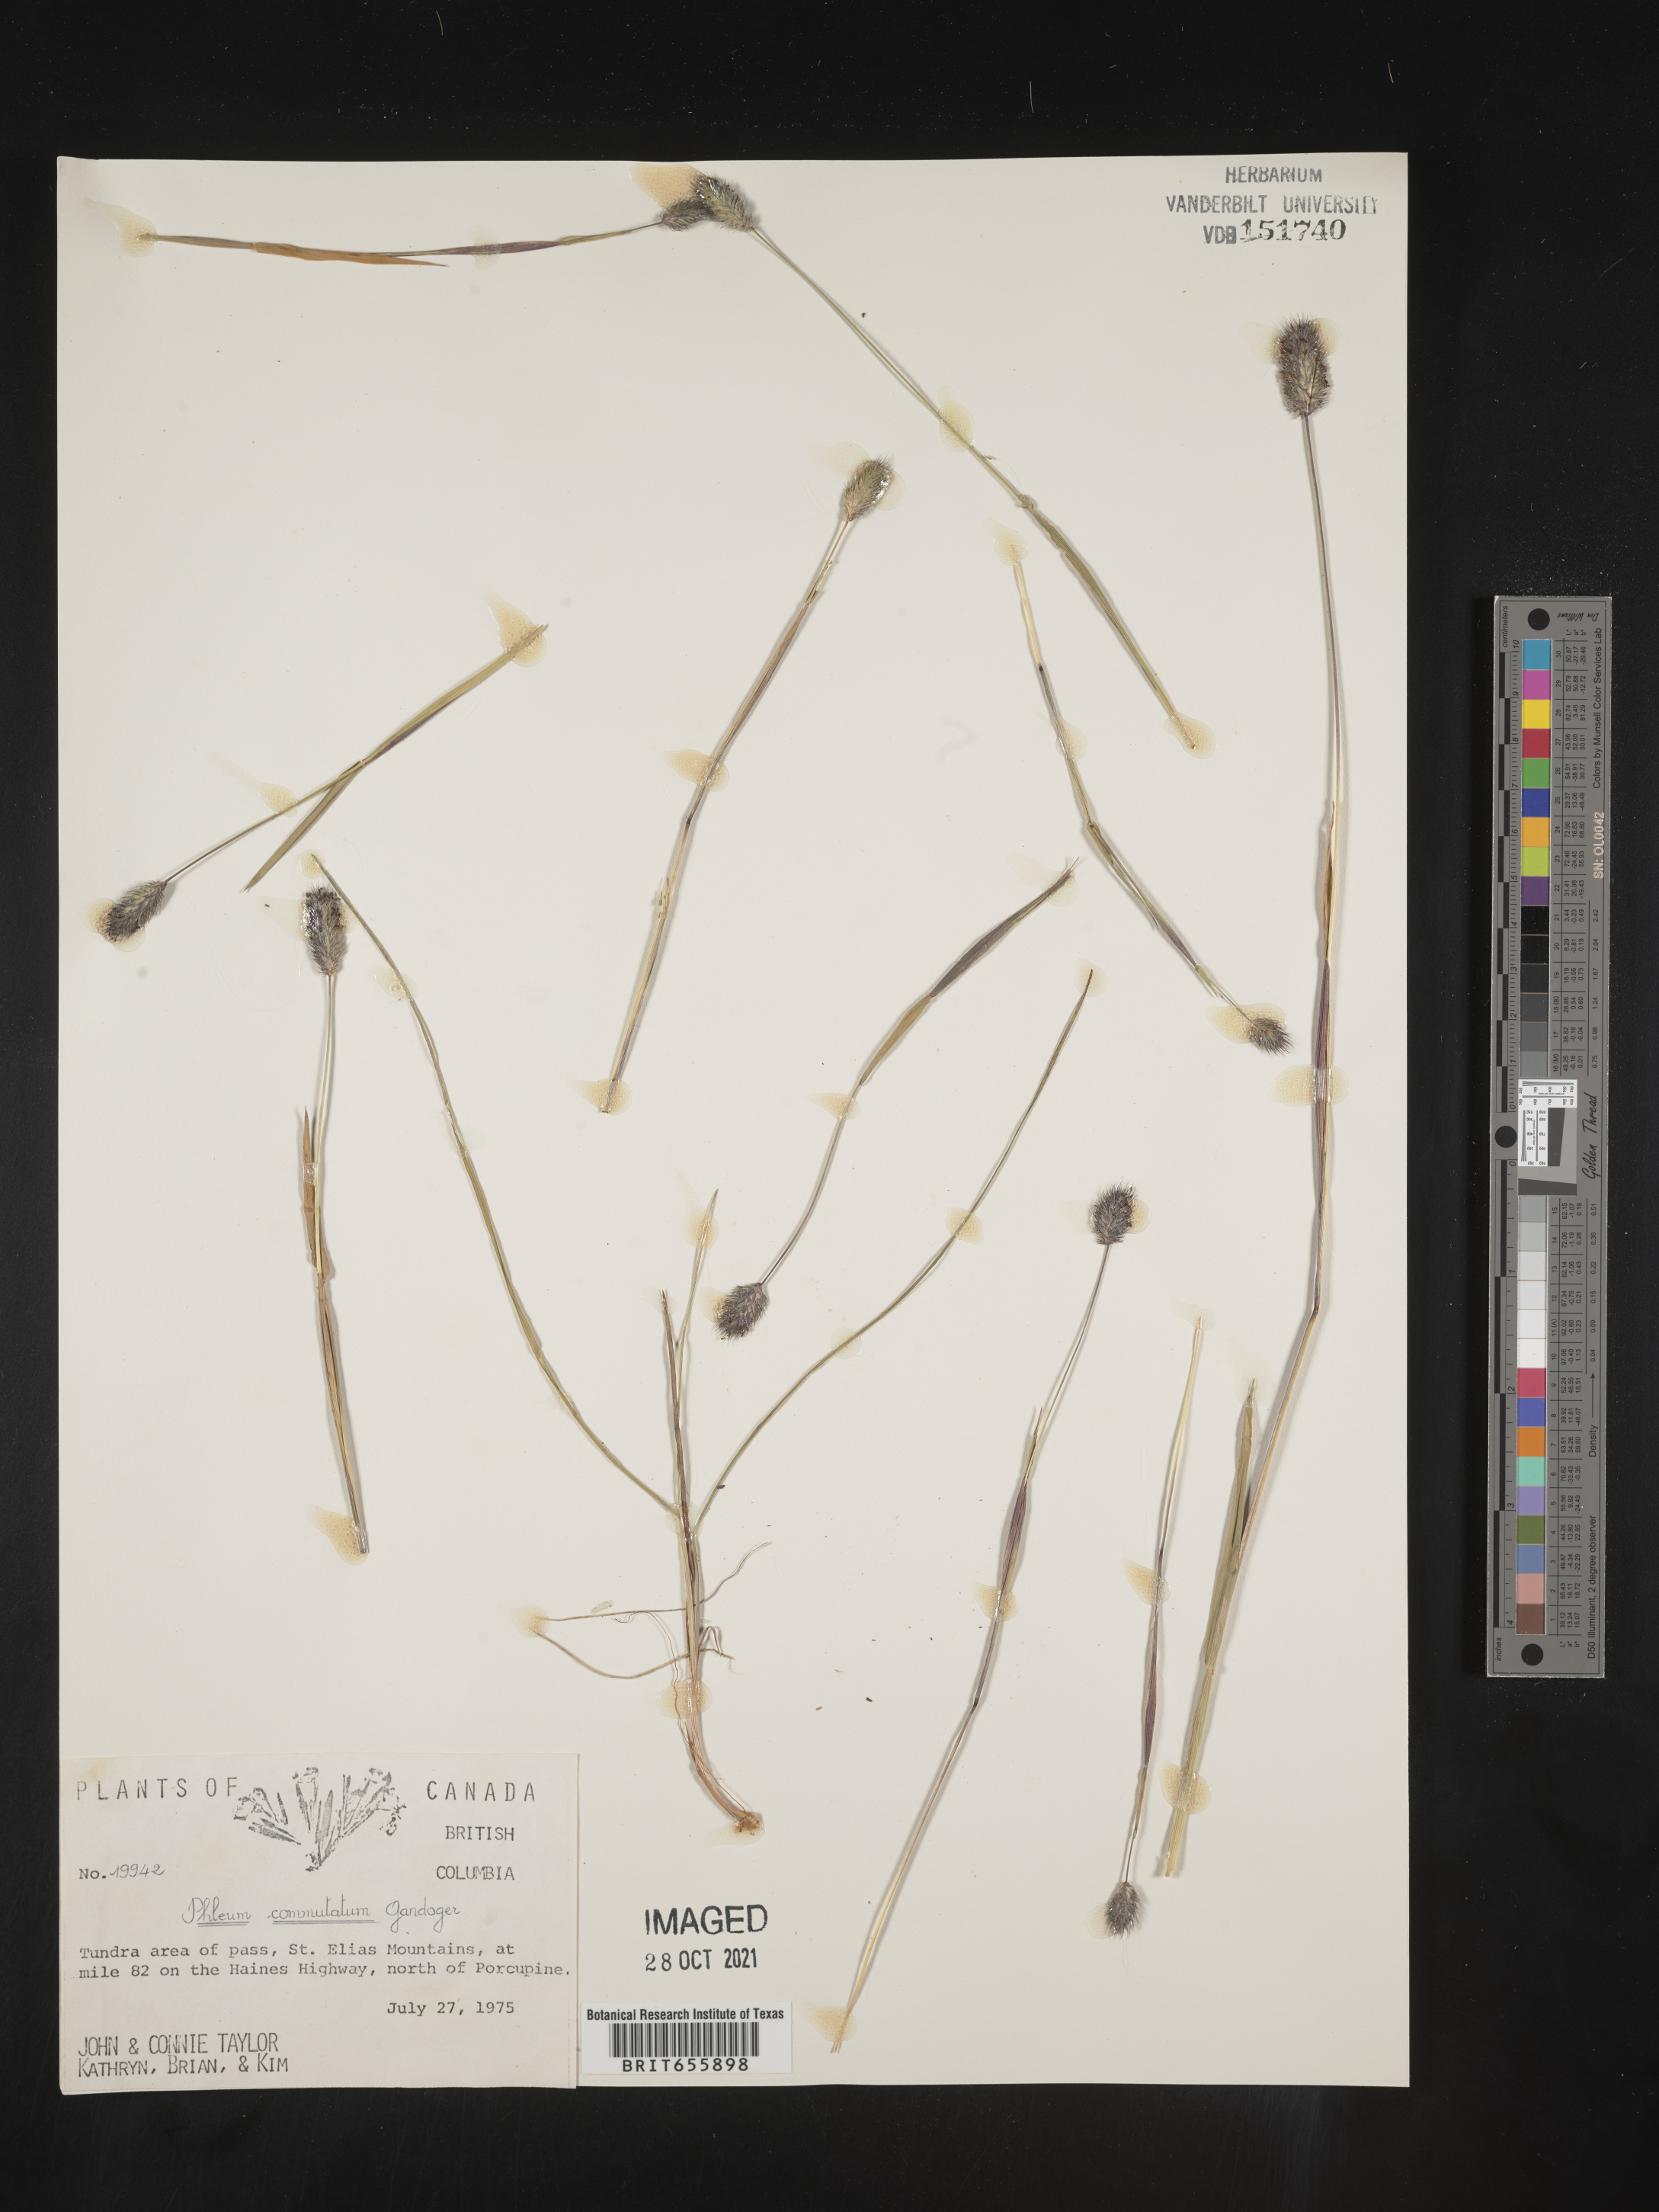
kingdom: Plantae
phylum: Tracheophyta
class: Liliopsida
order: Poales
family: Poaceae
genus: Phleum
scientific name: Phleum
